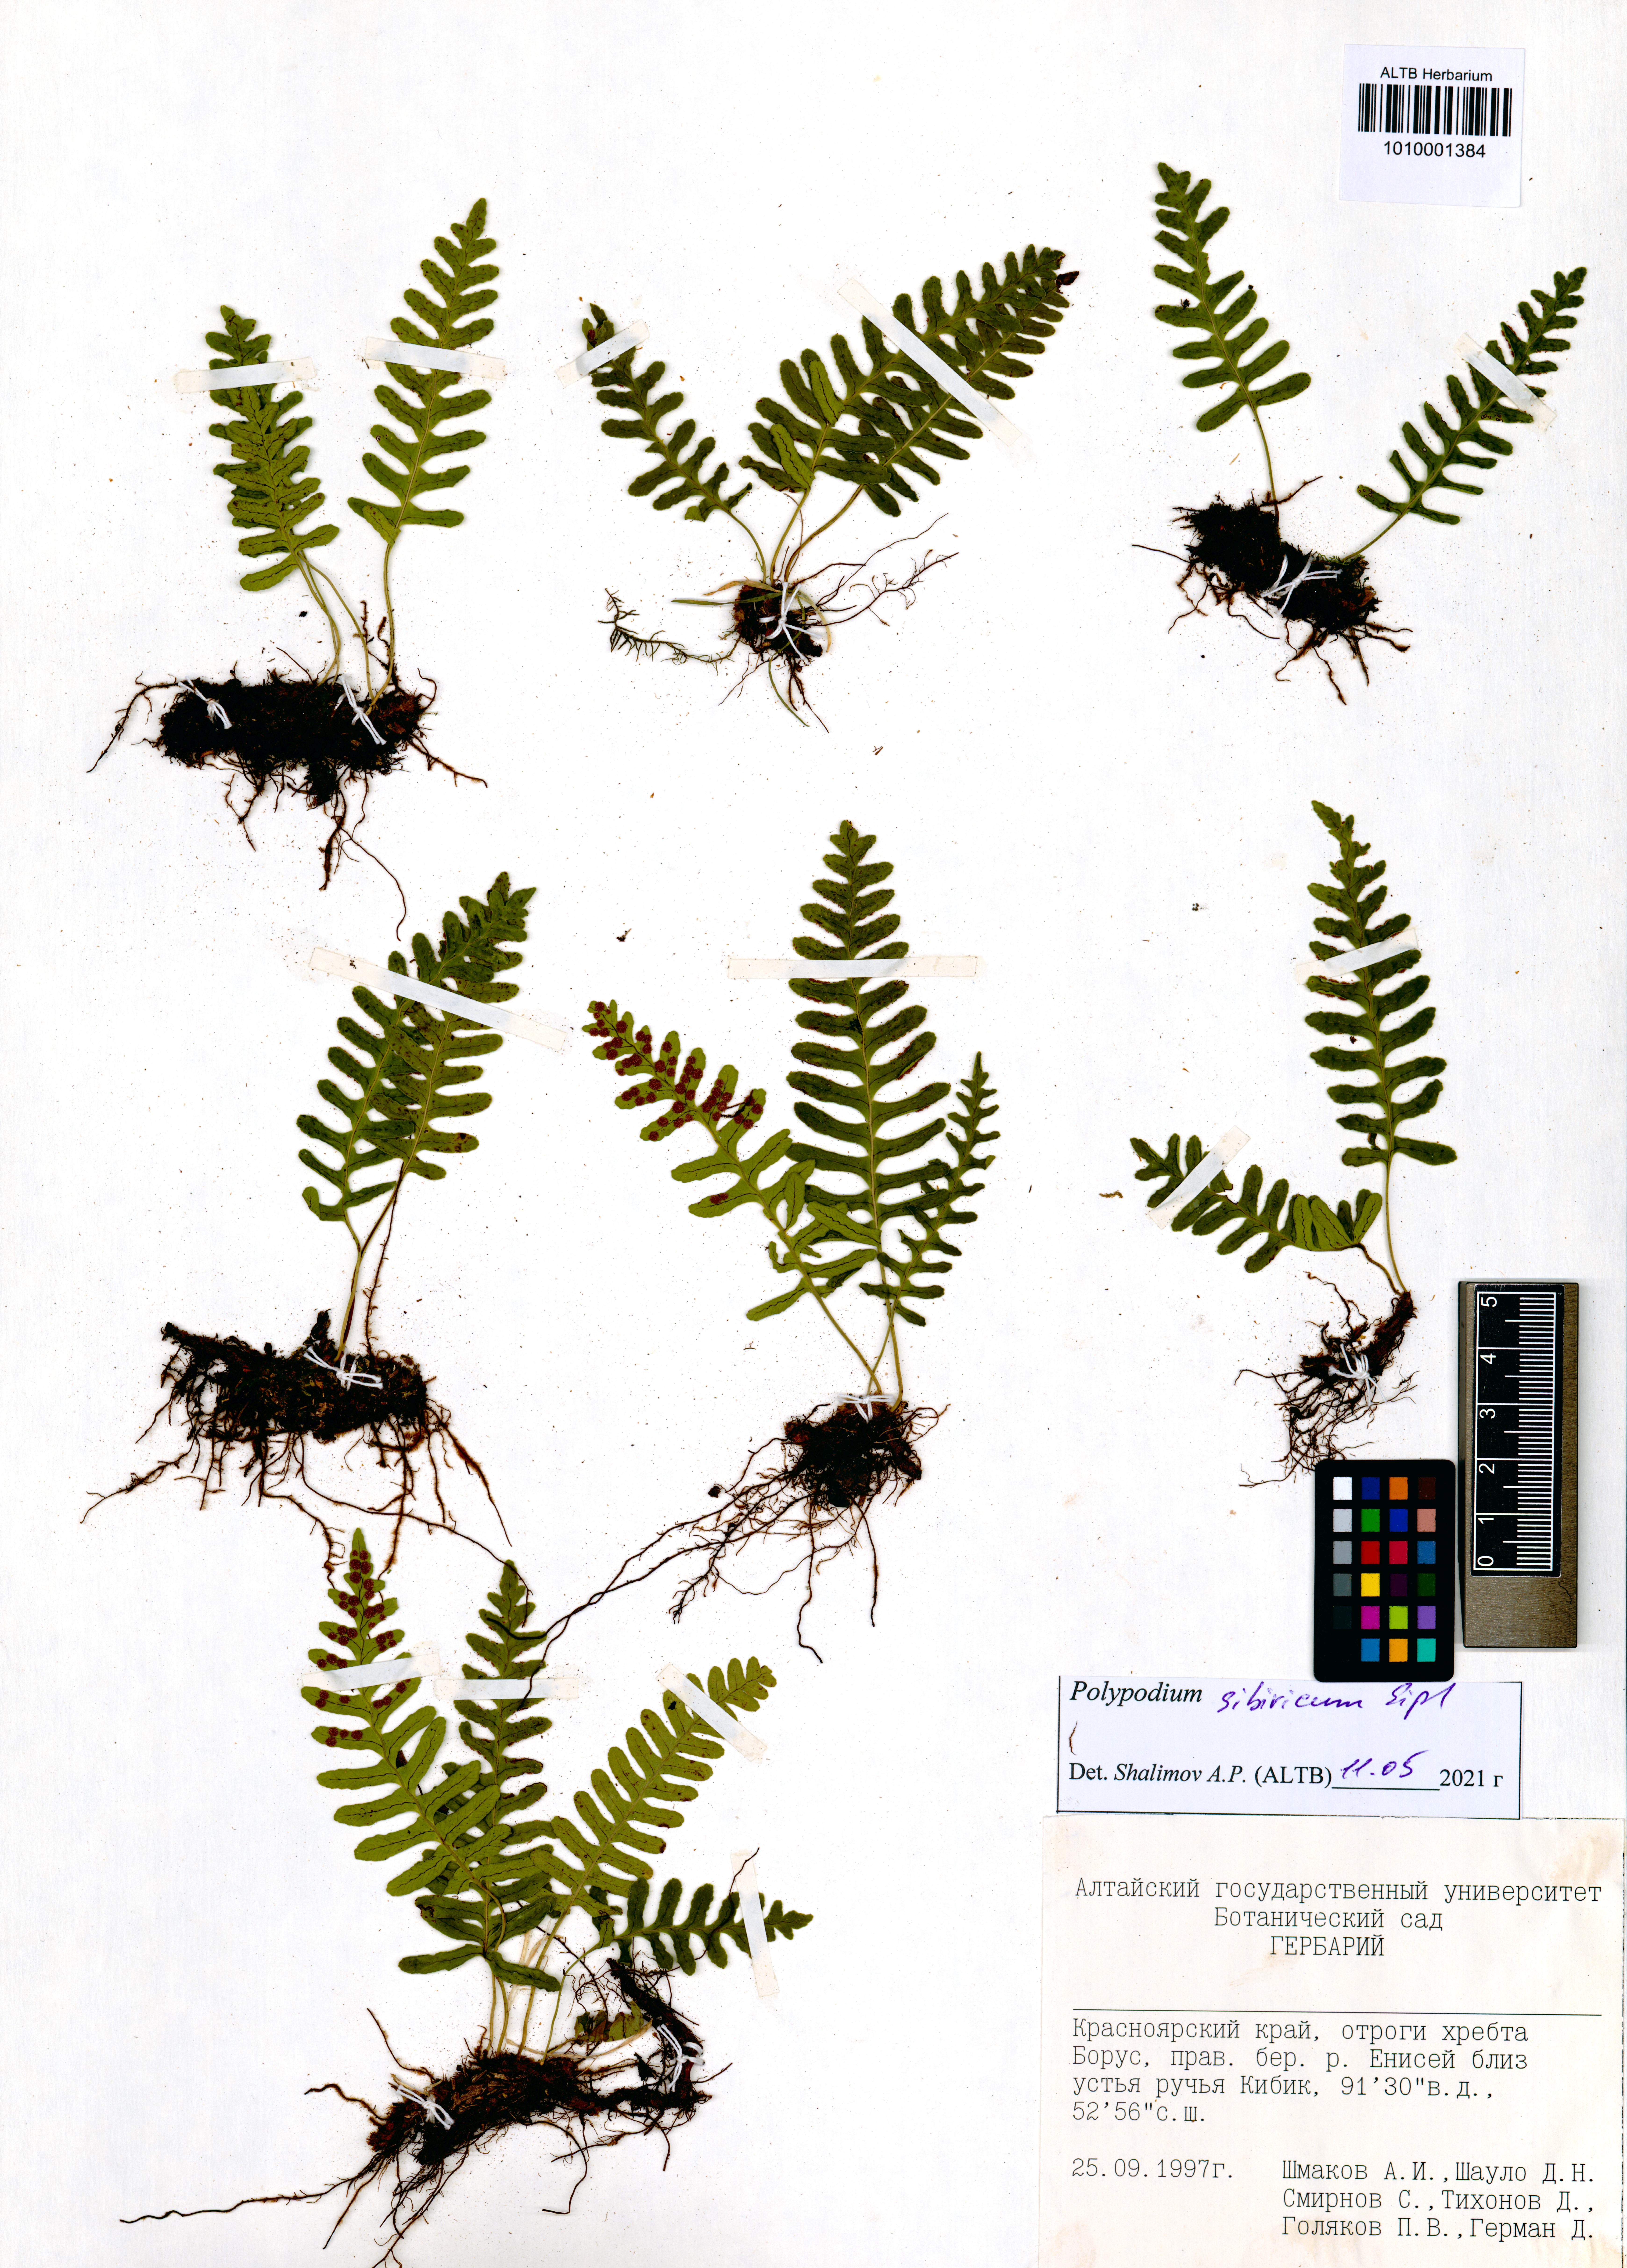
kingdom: Plantae
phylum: Tracheophyta
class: Polypodiopsida
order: Polypodiales
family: Polypodiaceae
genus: Polypodium
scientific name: Polypodium sibiricum
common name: Siberian polypody
